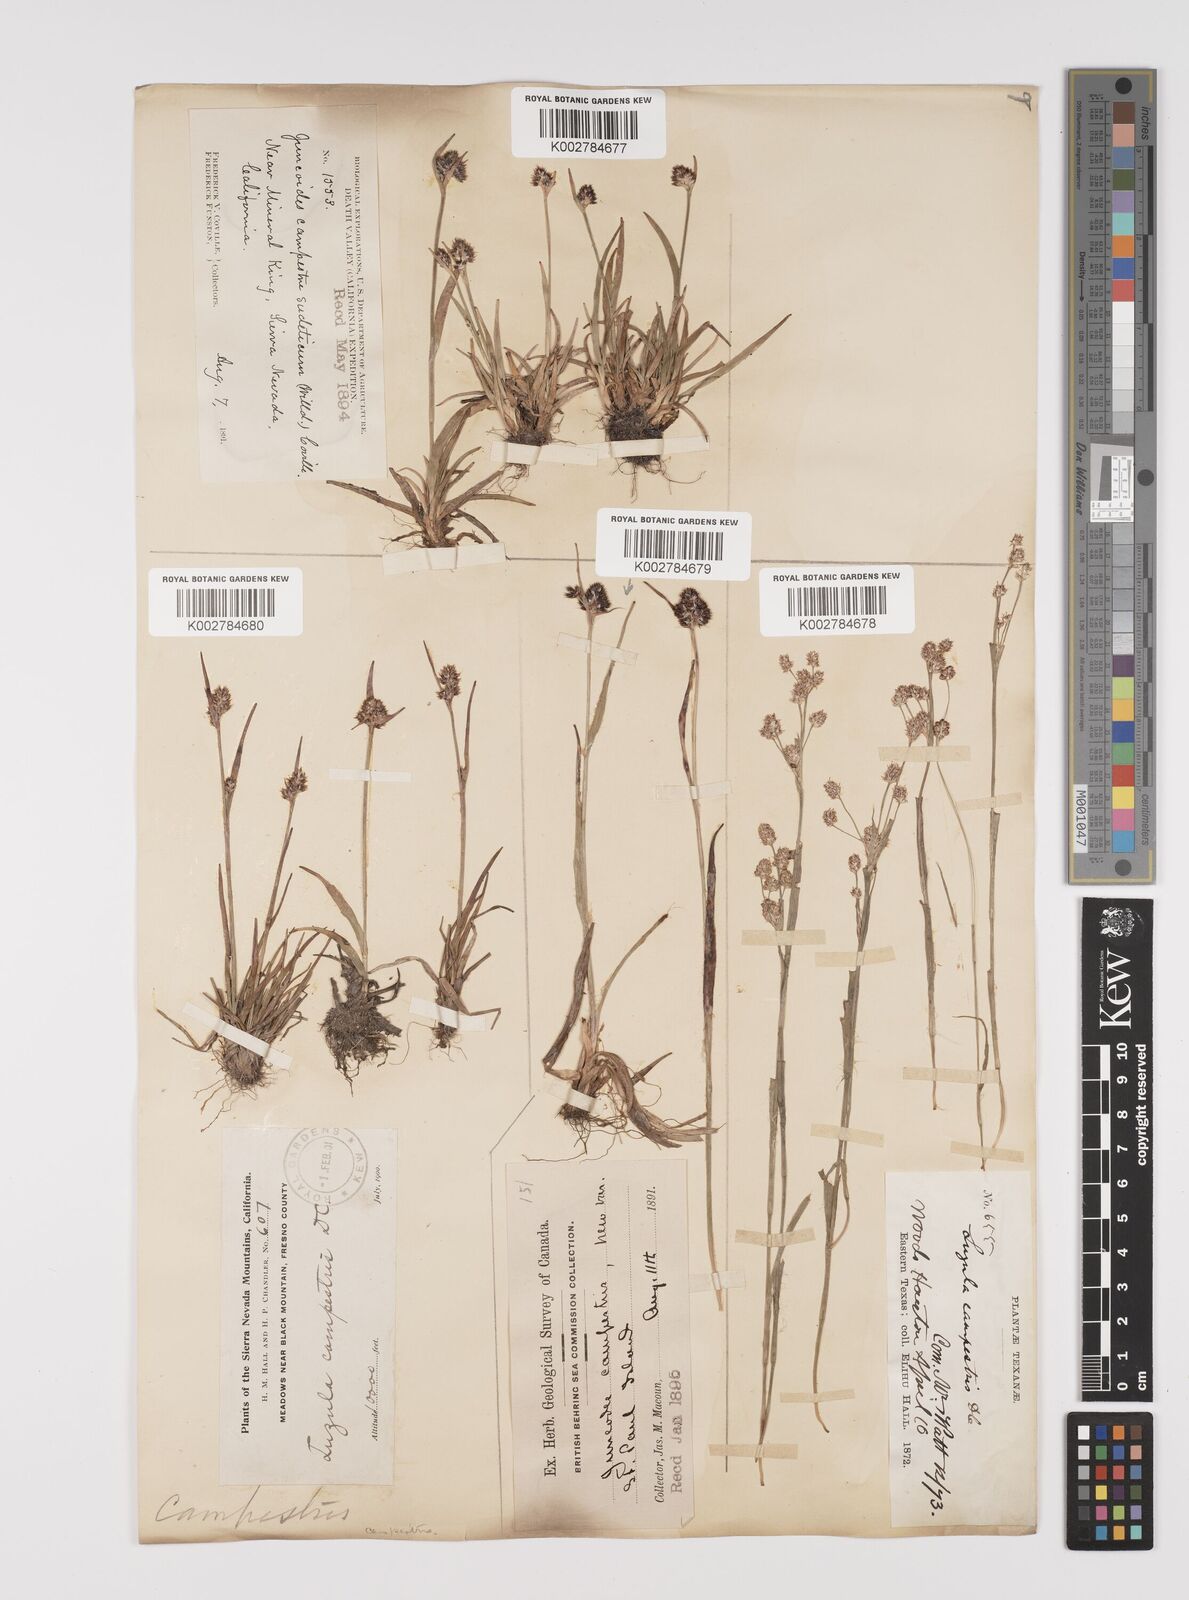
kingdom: Plantae
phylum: Tracheophyta
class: Liliopsida
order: Poales
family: Juncaceae
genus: Luzula
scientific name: Luzula campestris
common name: Field wood-rush
